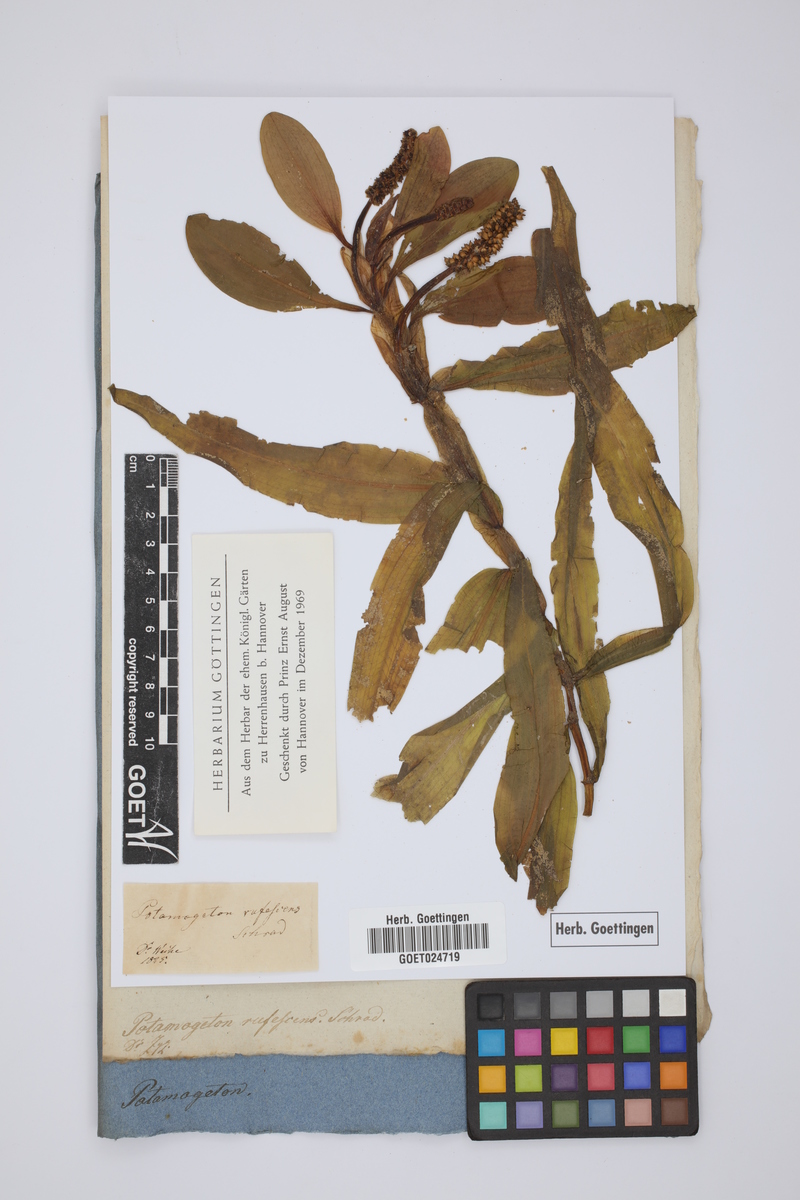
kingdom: Plantae
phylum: Tracheophyta
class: Liliopsida
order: Alismatales
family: Potamogetonaceae
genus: Potamogeton
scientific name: Potamogeton alpinus
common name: Red pondweed
